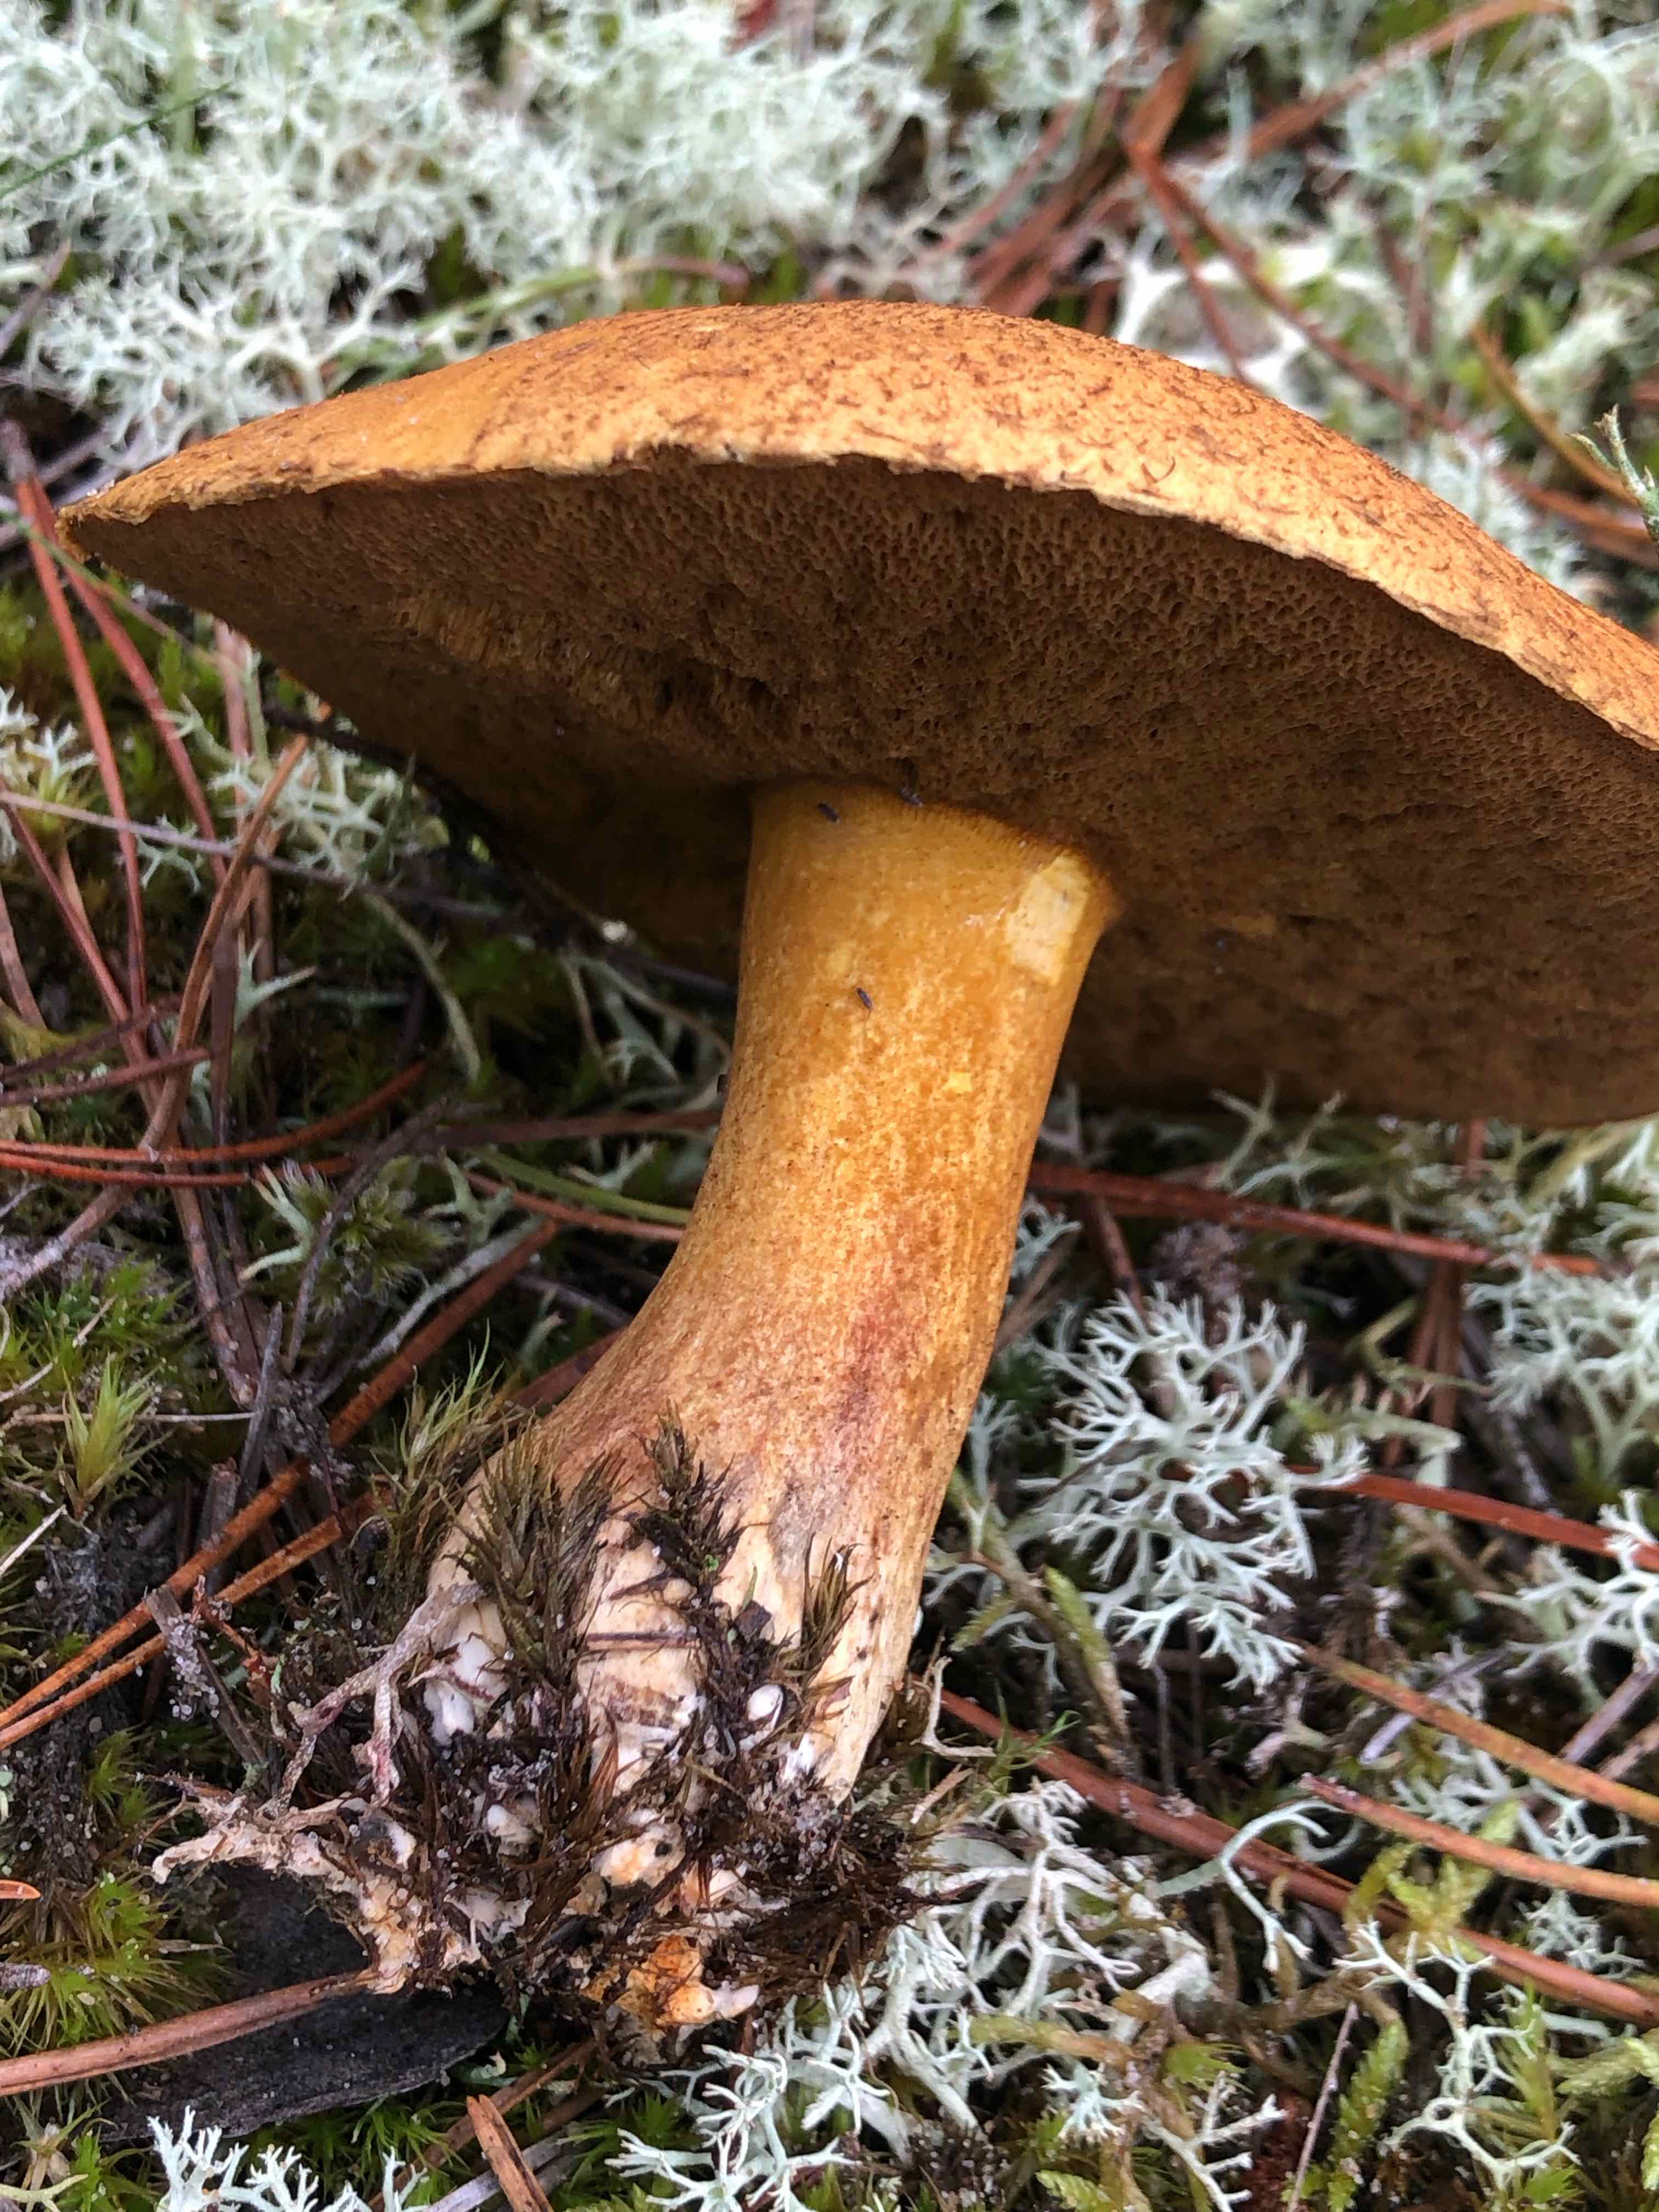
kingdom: Fungi
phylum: Basidiomycota
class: Agaricomycetes
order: Boletales
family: Suillaceae
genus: Suillus
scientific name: Suillus variegatus
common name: broget slimrørhat
